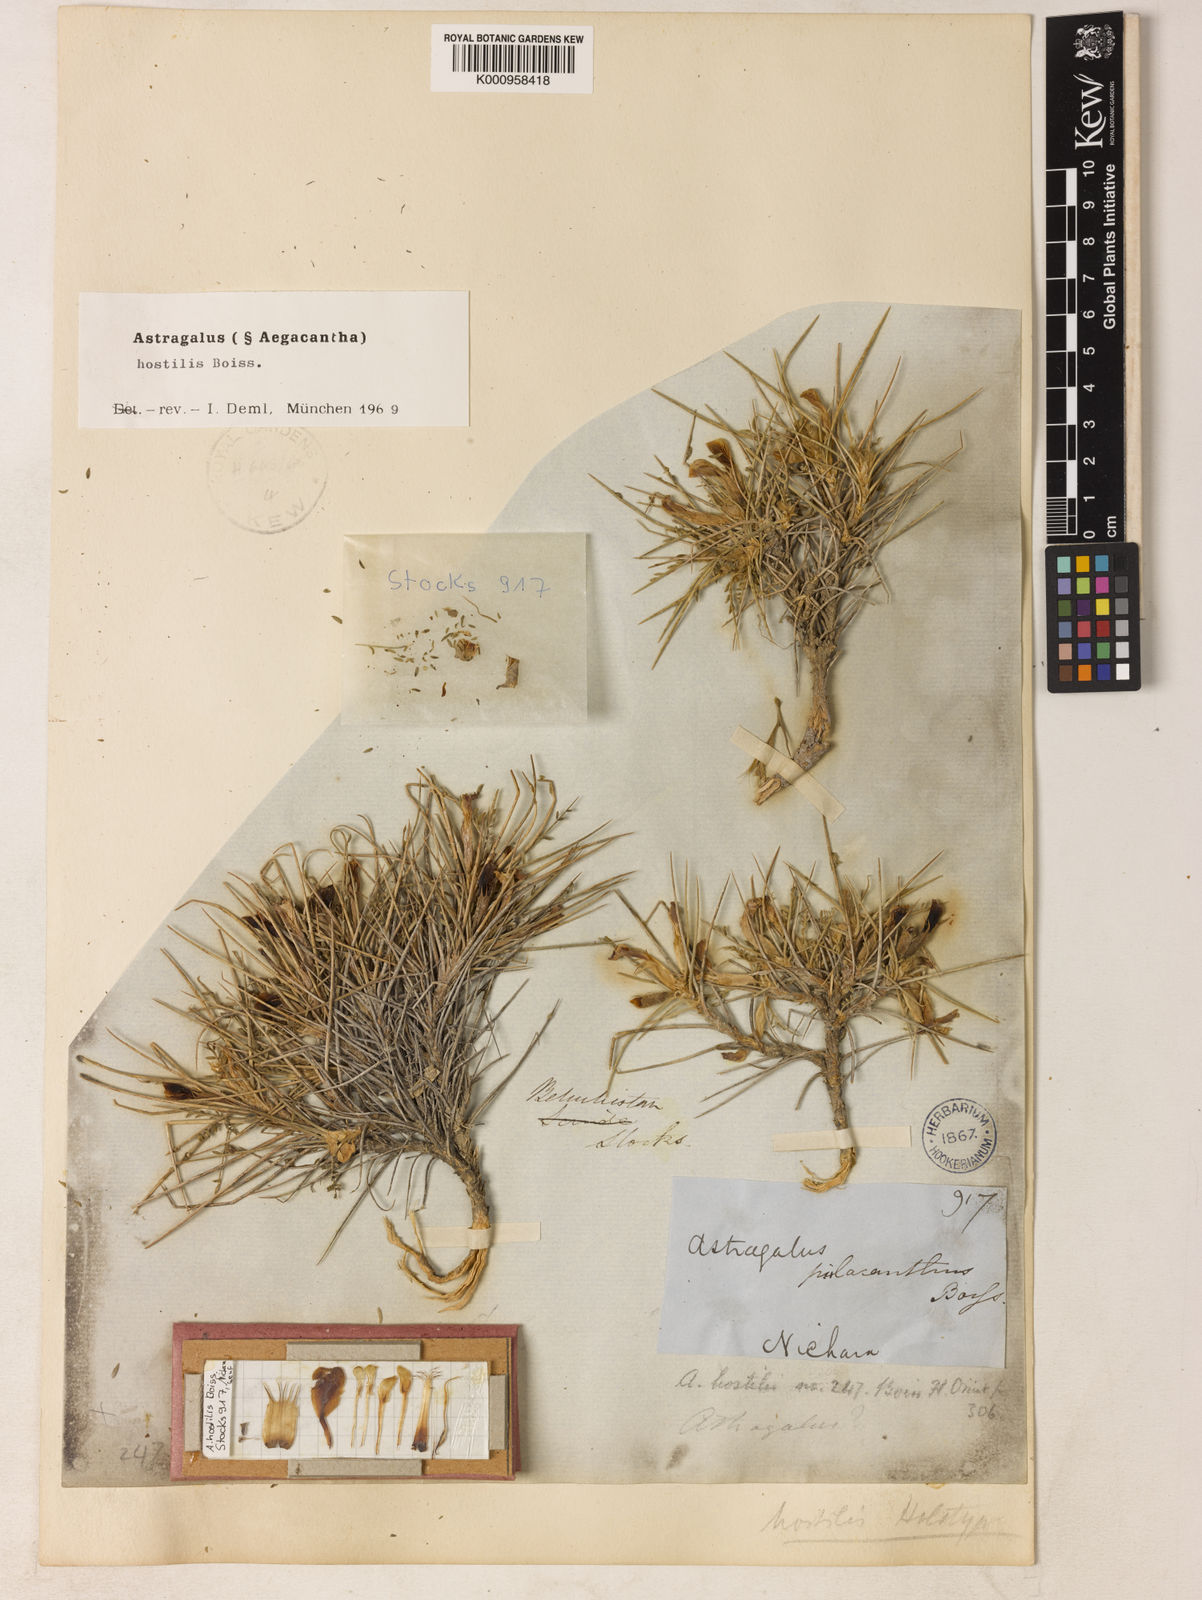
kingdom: Plantae
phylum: Tracheophyta
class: Magnoliopsida
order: Fabales
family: Fabaceae
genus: Astragalus
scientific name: Astragalus
